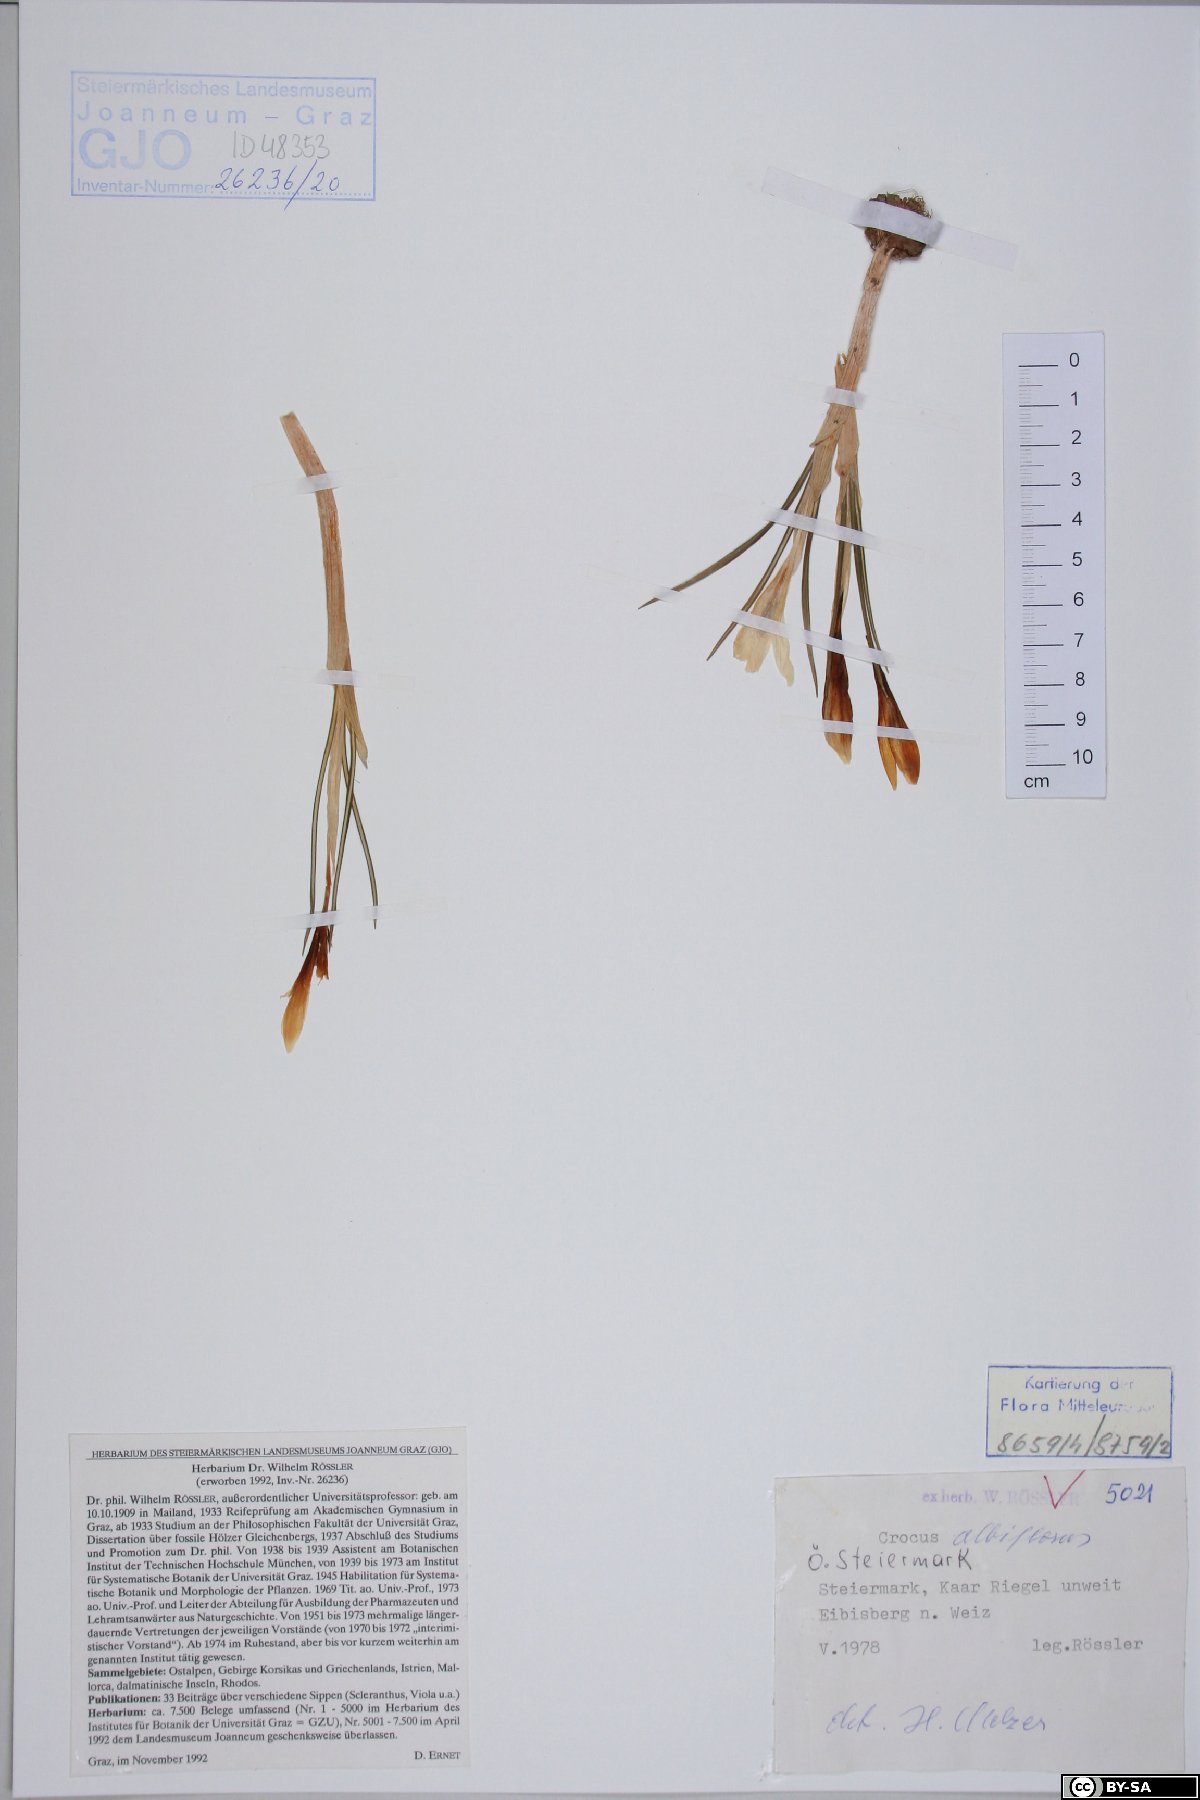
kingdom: Plantae
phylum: Tracheophyta
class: Liliopsida
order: Asparagales
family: Iridaceae
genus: Crocus
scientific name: Crocus vernus
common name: Spring crocus
